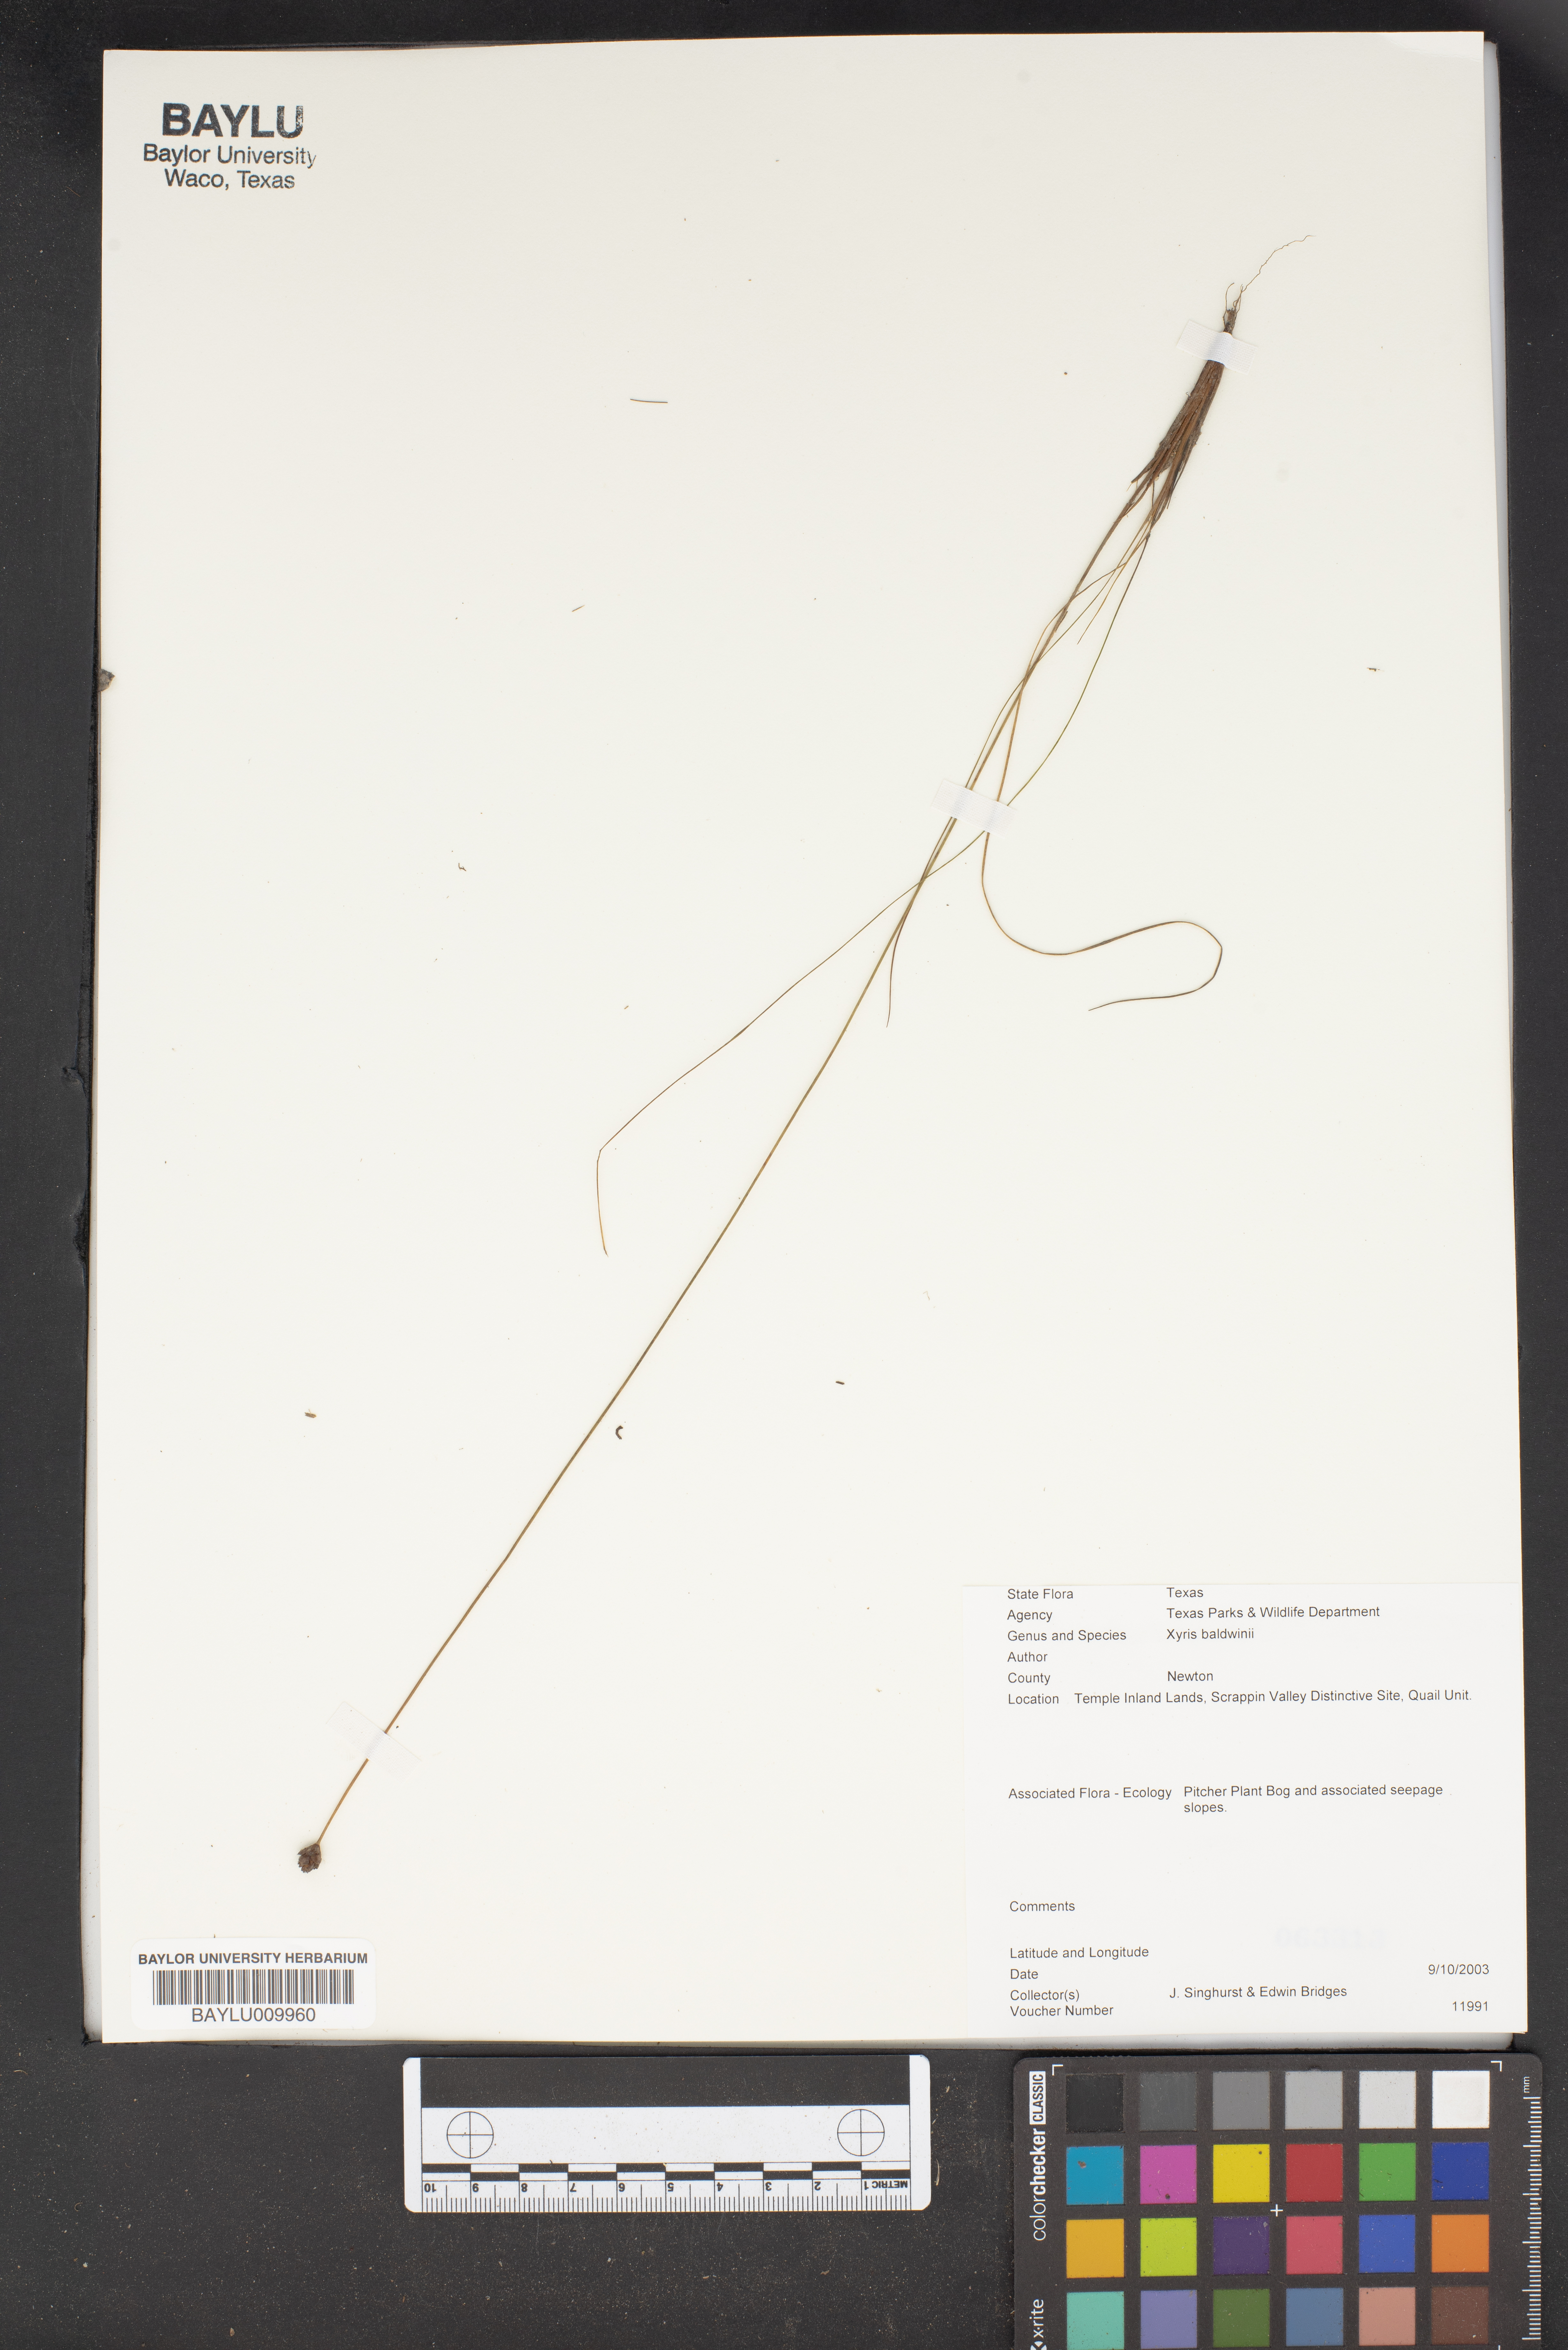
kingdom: Plantae
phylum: Tracheophyta
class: Liliopsida
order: Poales
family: Xyridaceae
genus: Xyris
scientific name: Xyris
